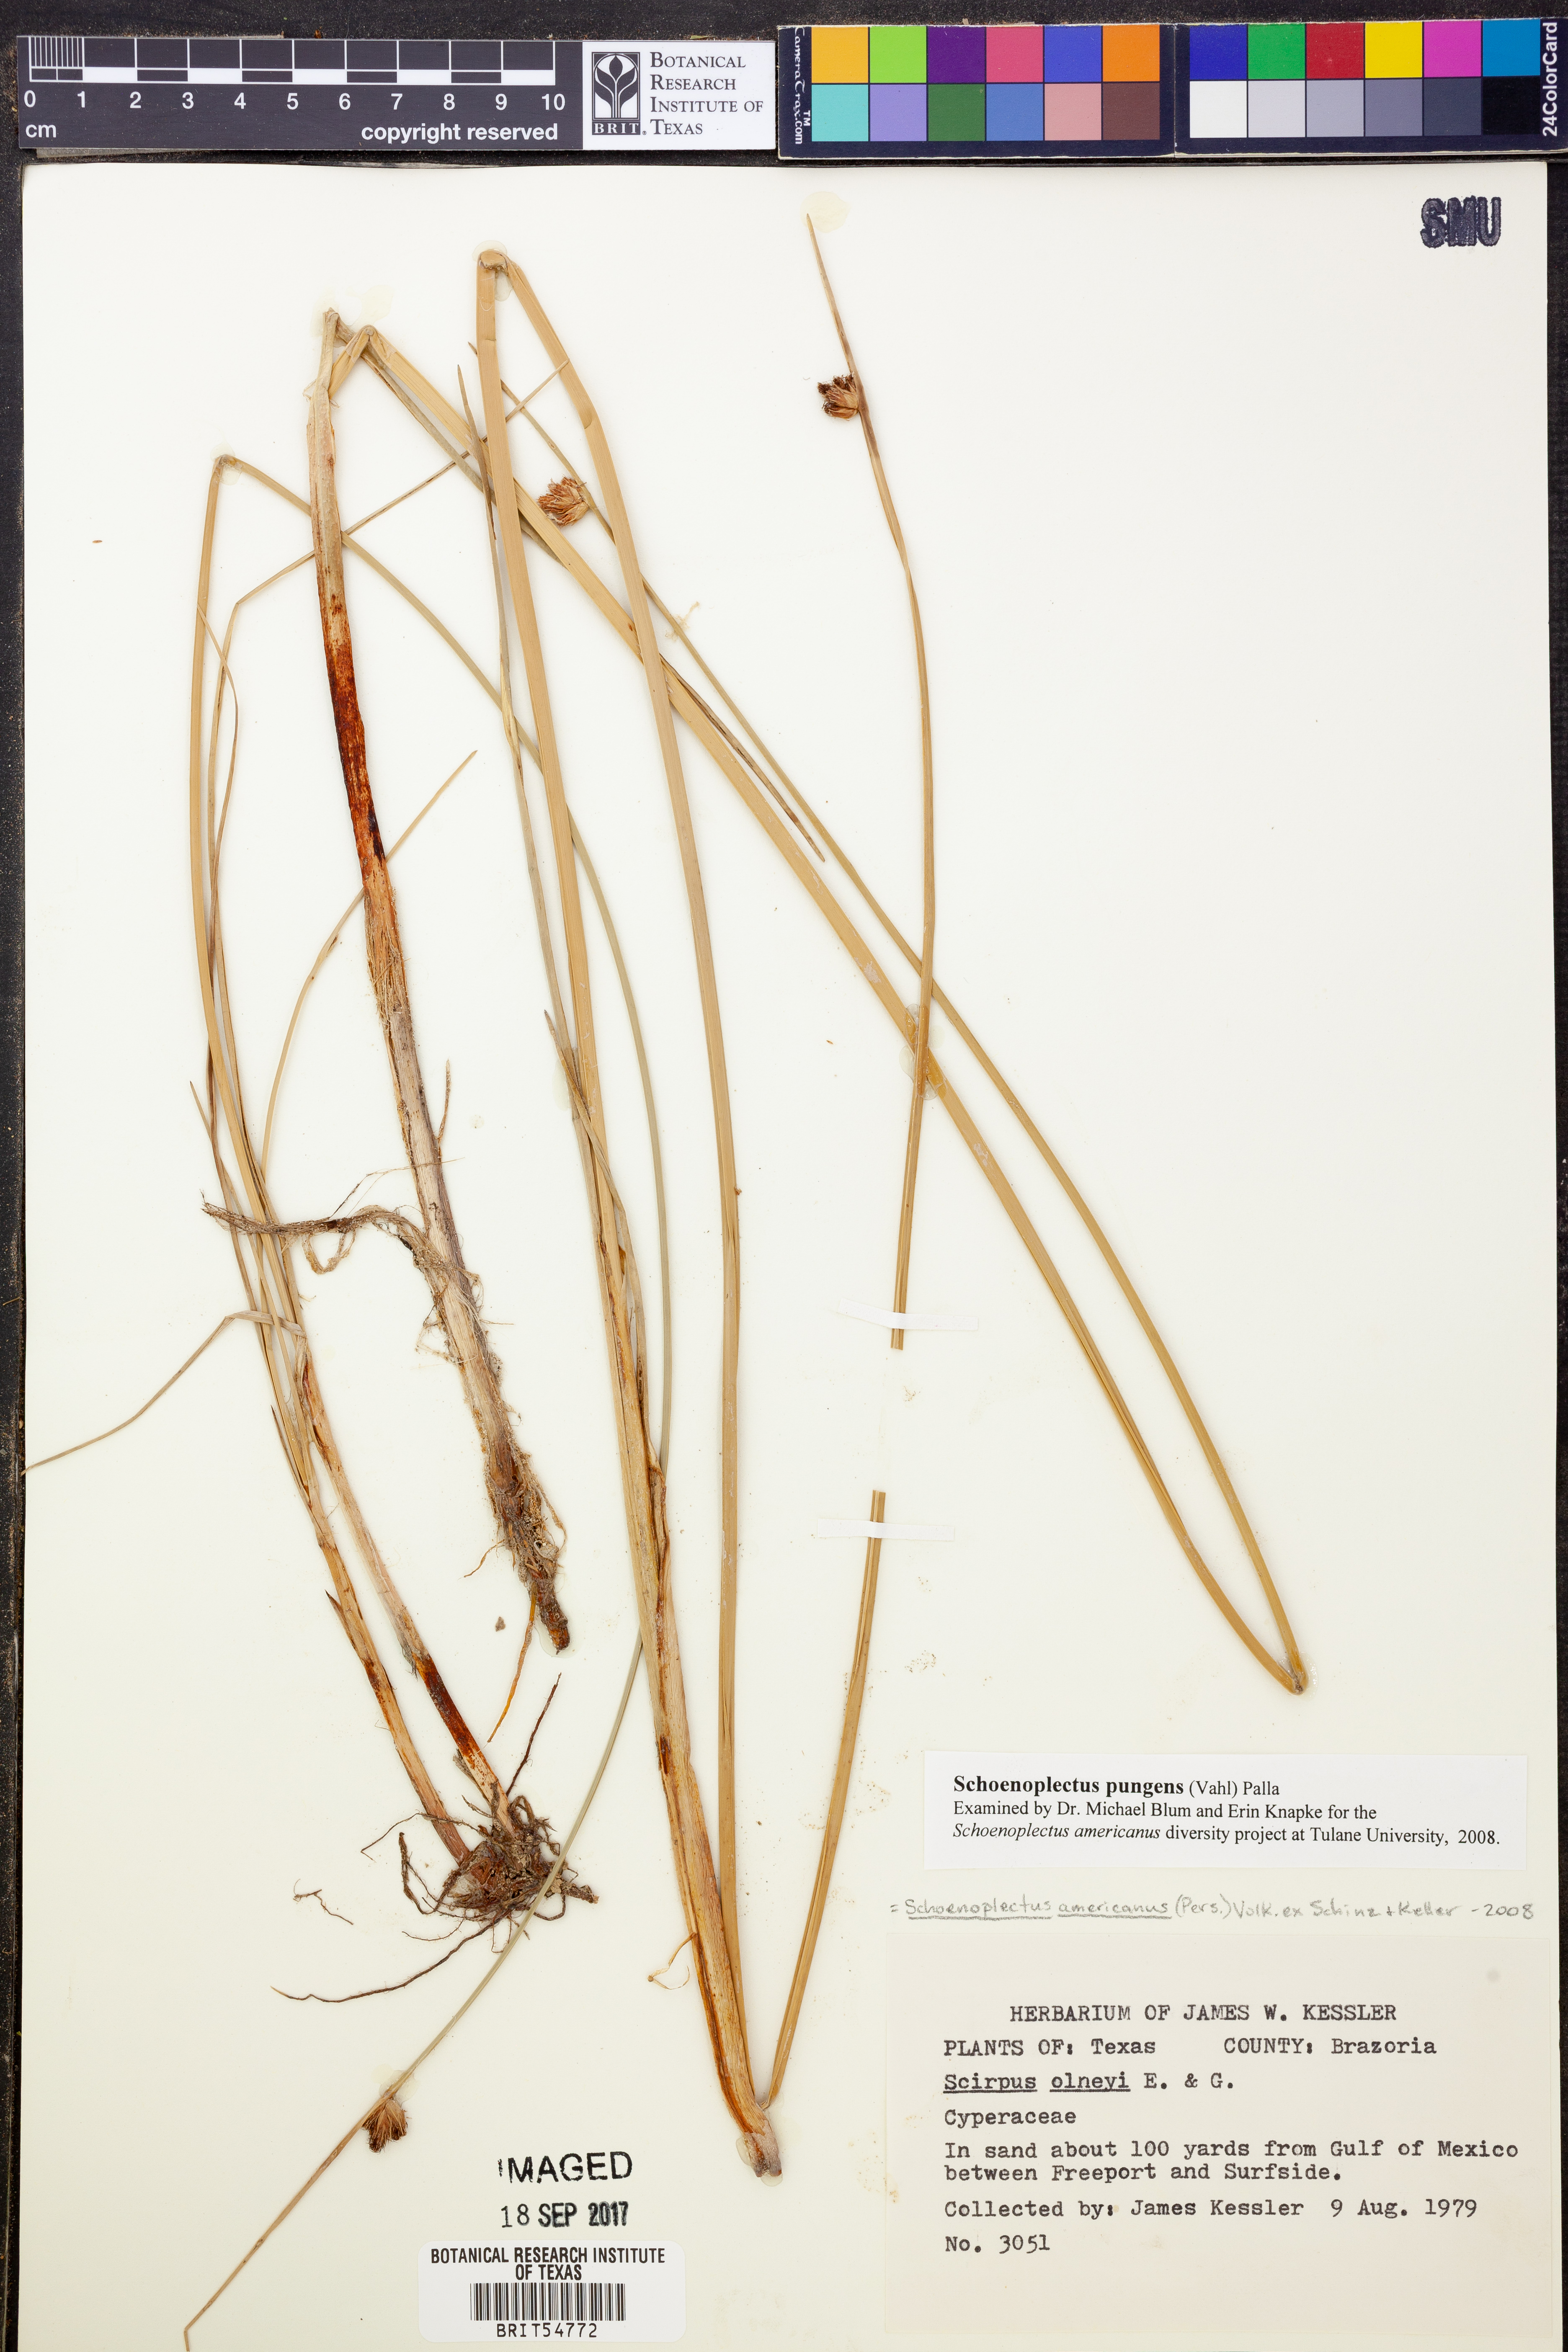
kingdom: Plantae
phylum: Tracheophyta
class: Liliopsida
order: Poales
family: Cyperaceae
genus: Schoenoplectus
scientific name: Schoenoplectus pungens
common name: Sharp club-rush
